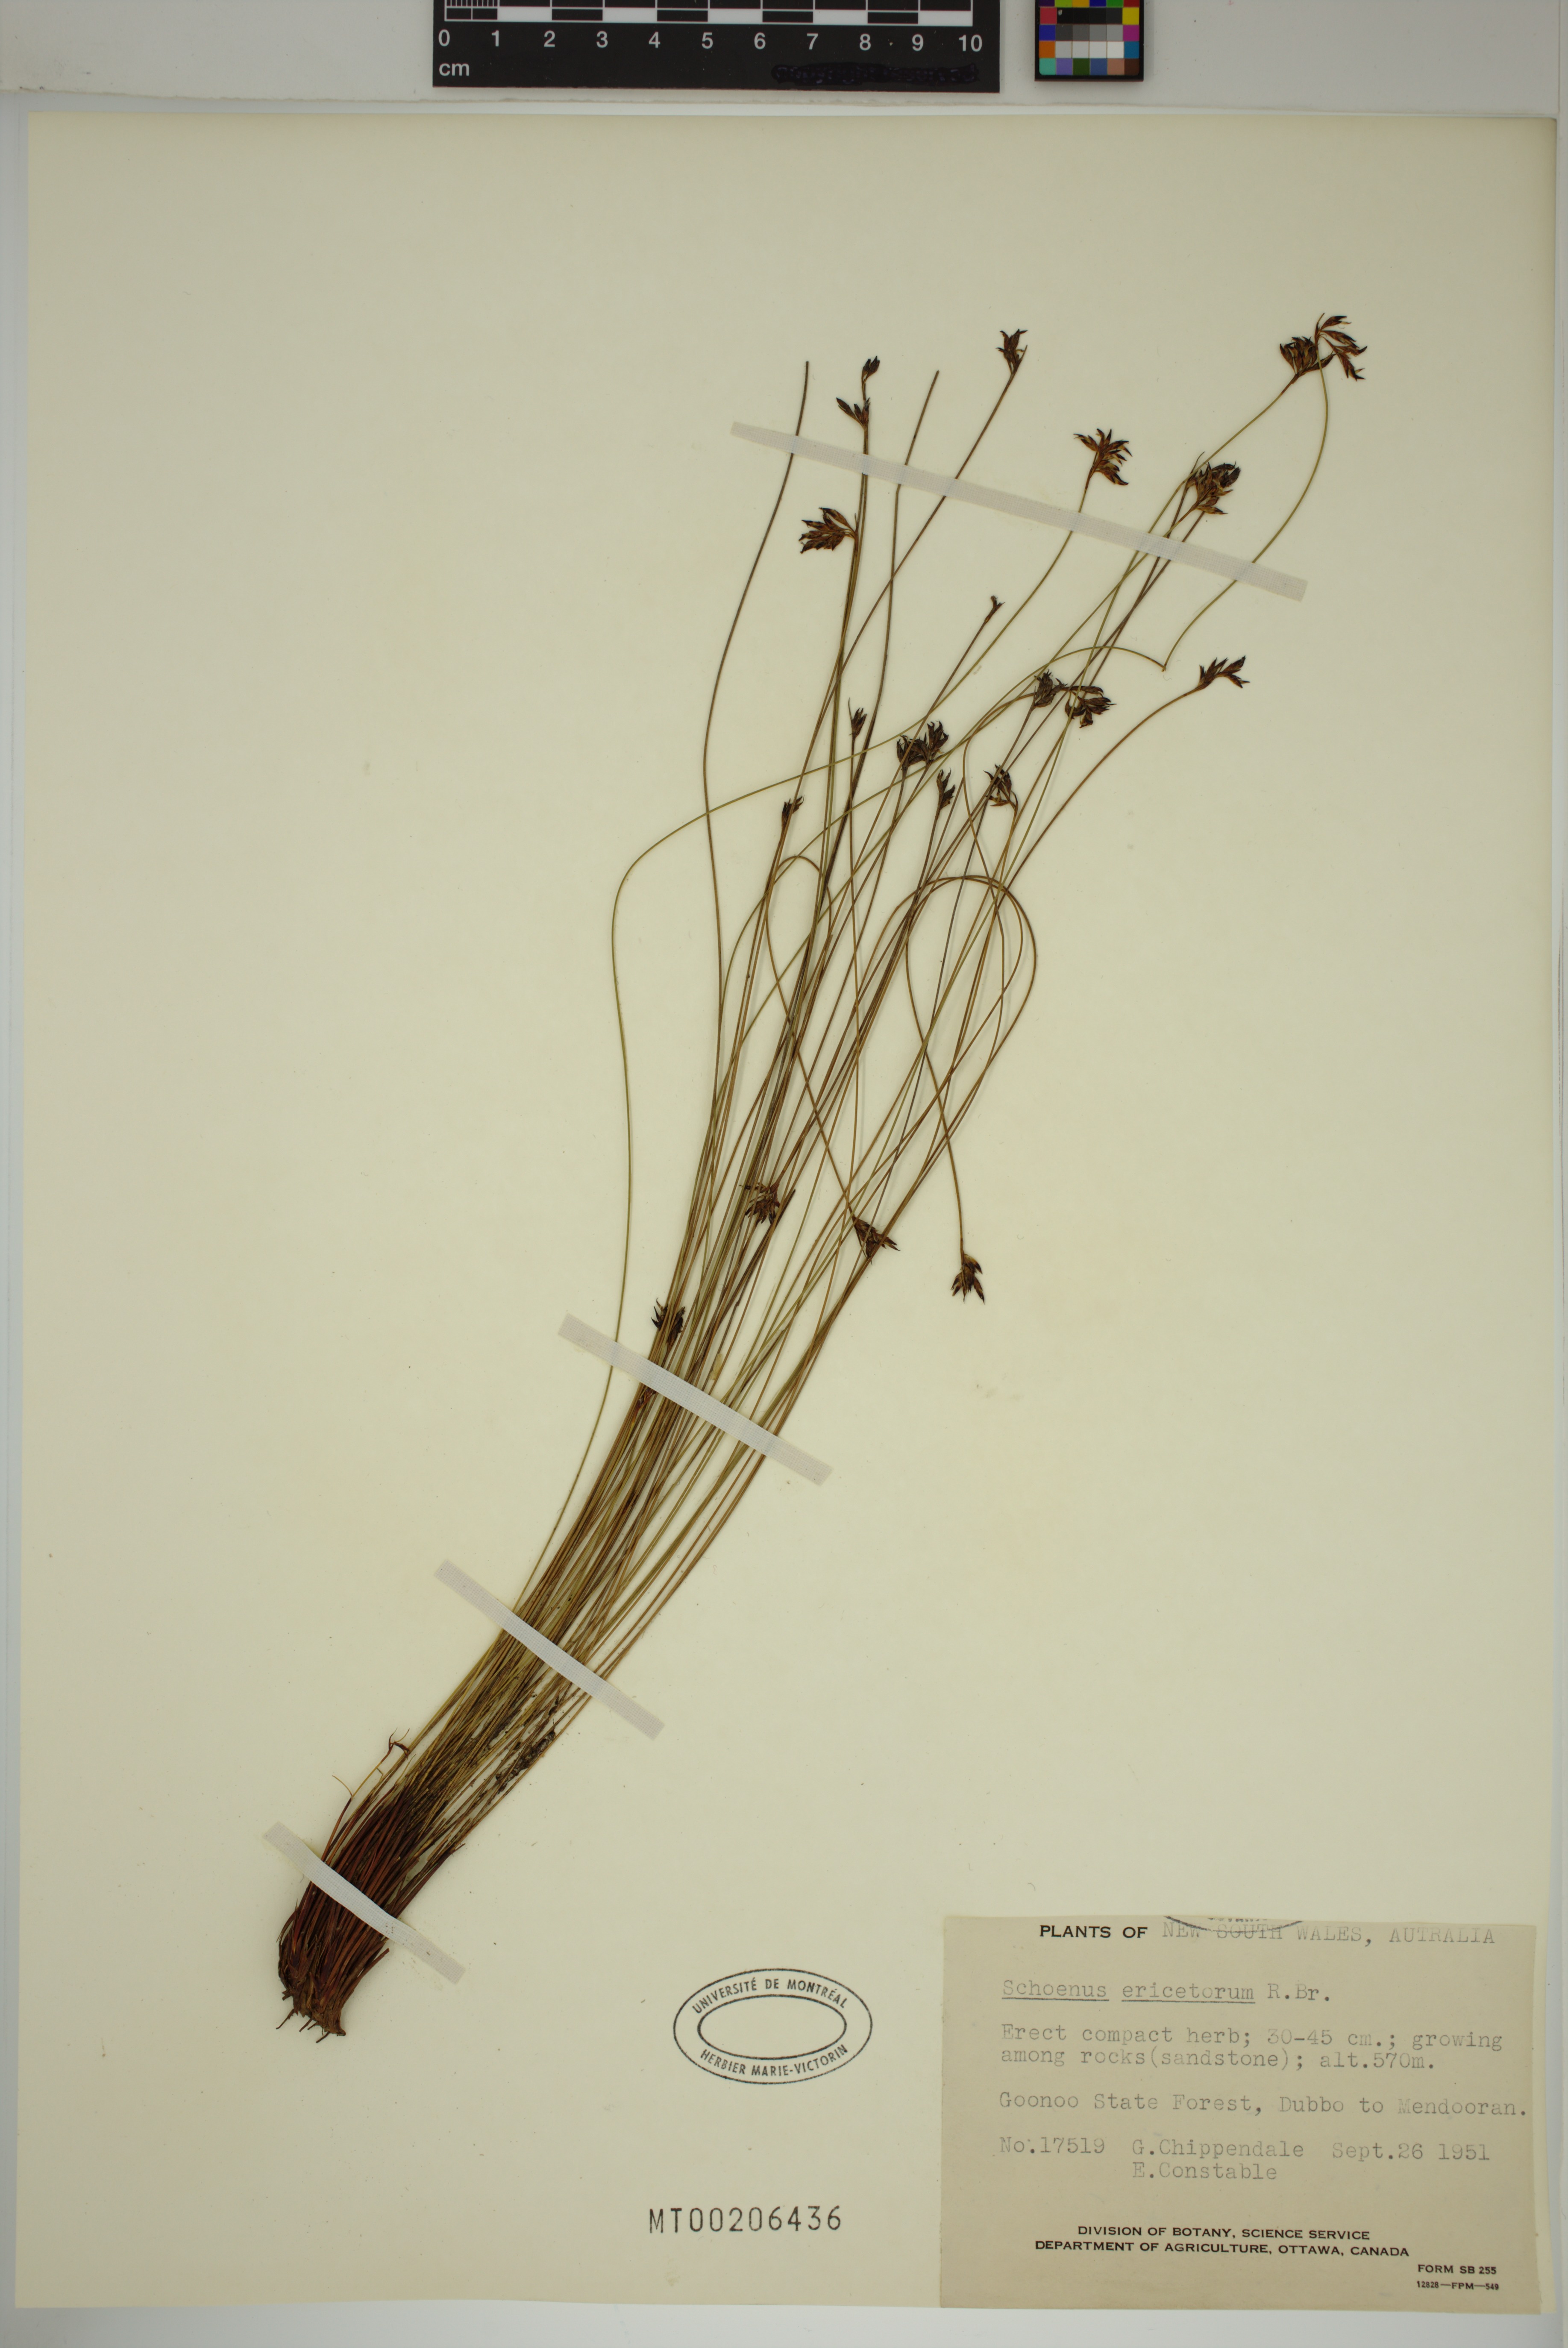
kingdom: Plantae
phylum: Tracheophyta
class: Liliopsida
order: Poales
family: Cyperaceae
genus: Schoenus
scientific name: Schoenus ericetorum
